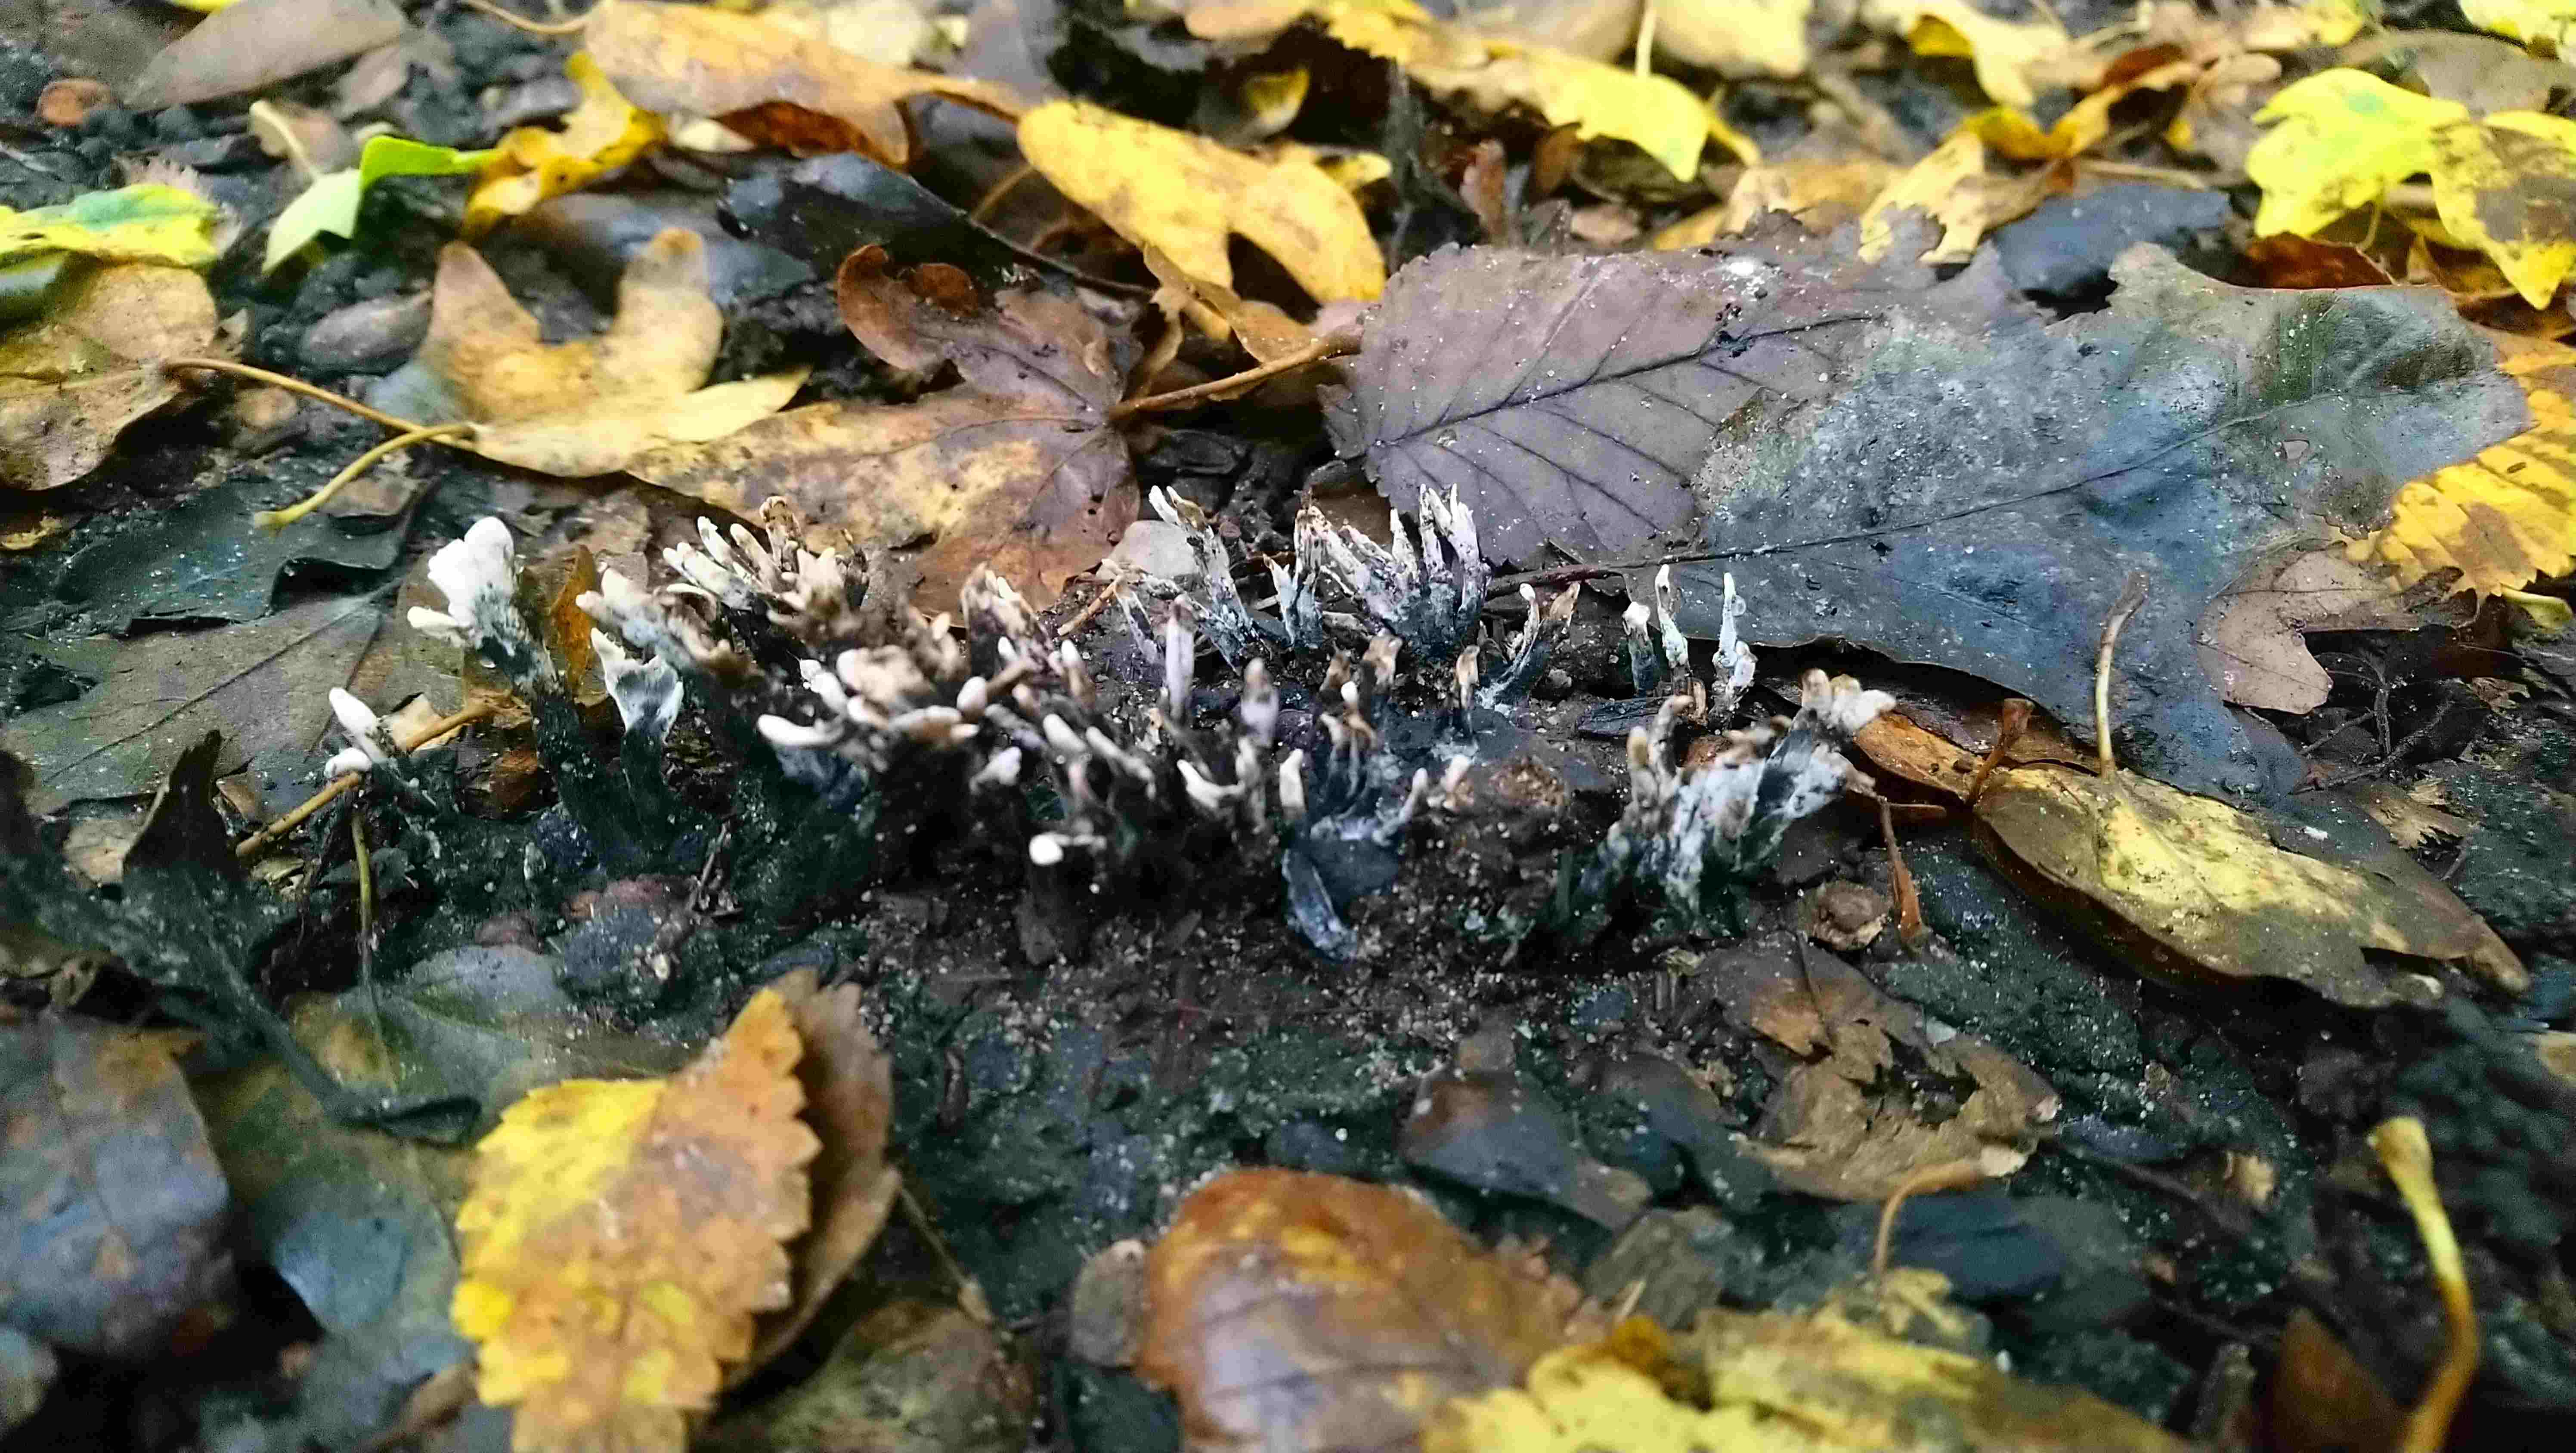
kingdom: Fungi
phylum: Ascomycota
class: Sordariomycetes
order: Xylariales
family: Xylariaceae
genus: Xylaria
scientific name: Xylaria hypoxylon
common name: grenet stødsvamp
